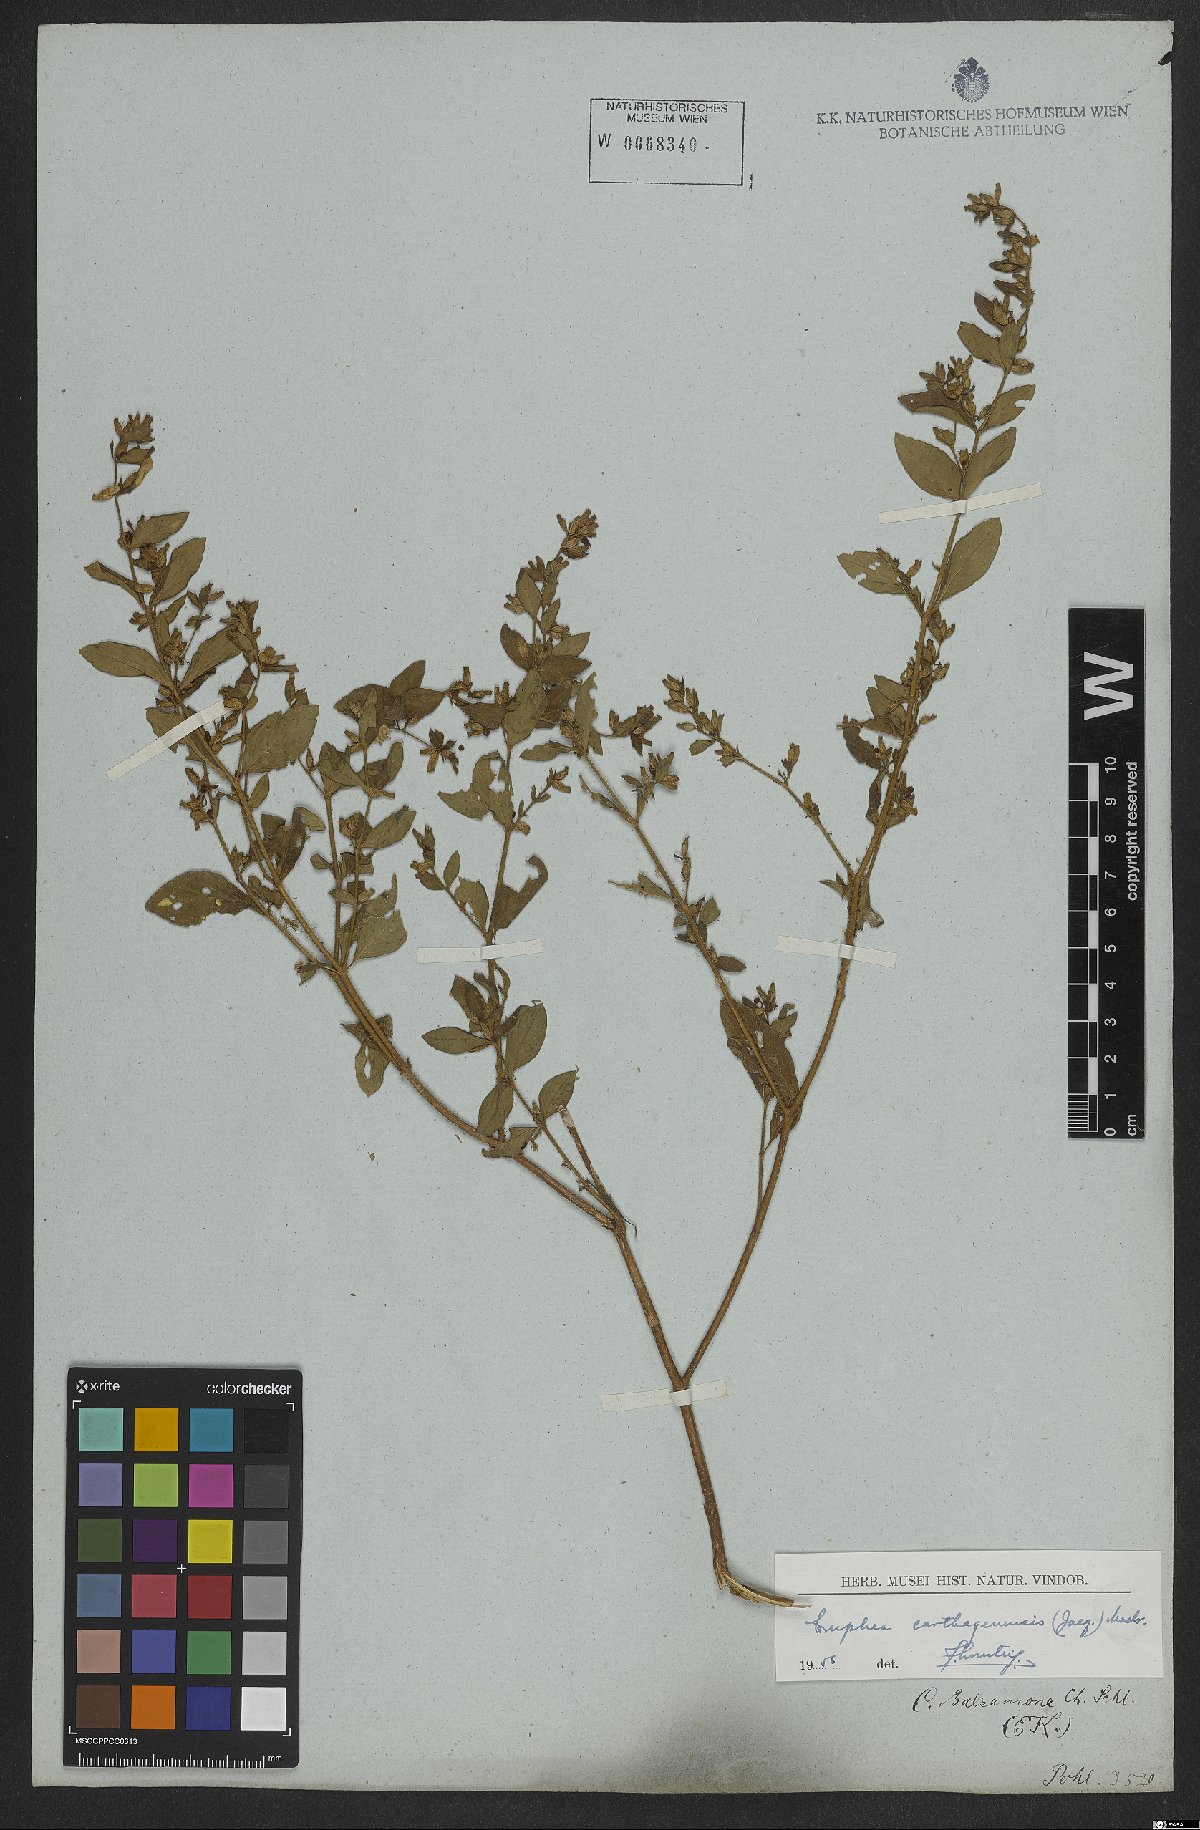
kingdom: Plantae
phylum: Tracheophyta
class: Magnoliopsida
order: Myrtales
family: Lythraceae
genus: Cuphea
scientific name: Cuphea carthagenensis
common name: Colombian waxweed
